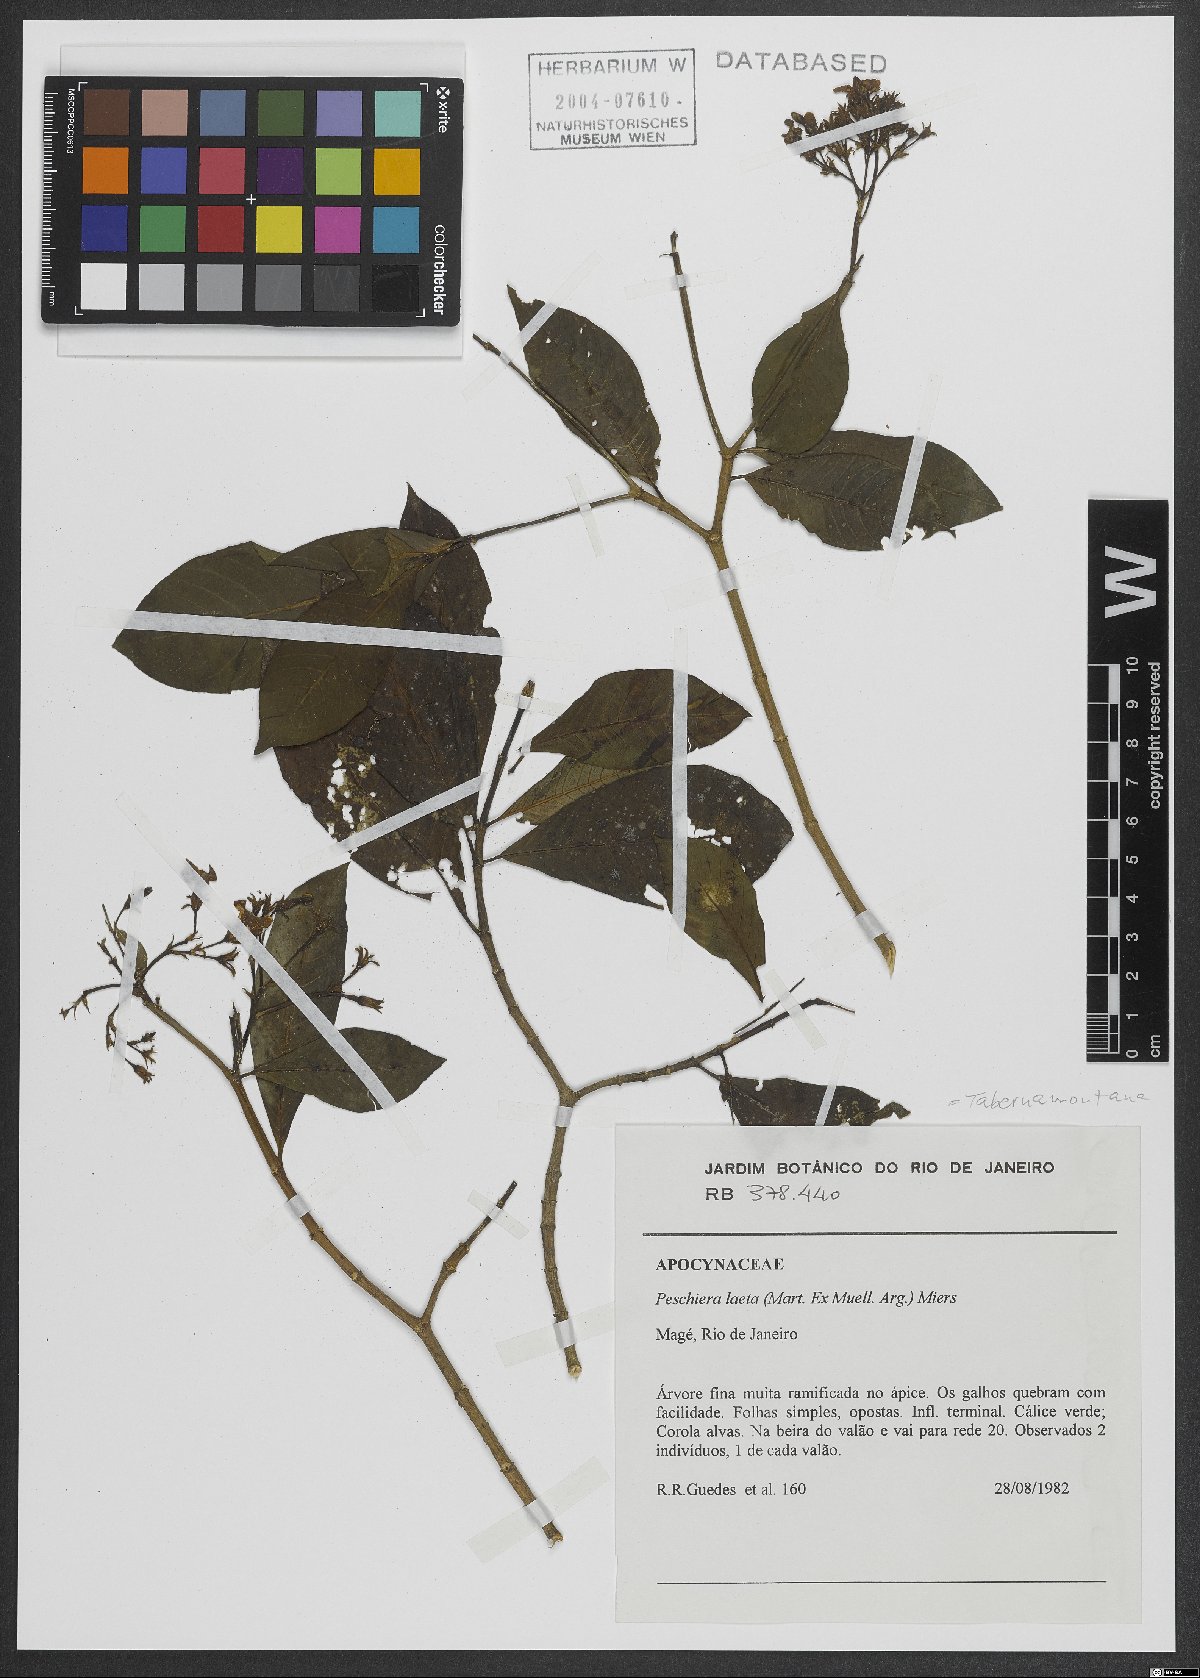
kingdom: Plantae
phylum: Tracheophyta
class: Magnoliopsida
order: Gentianales
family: Apocynaceae
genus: Tabernaemontana
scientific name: Tabernaemontana laeta
